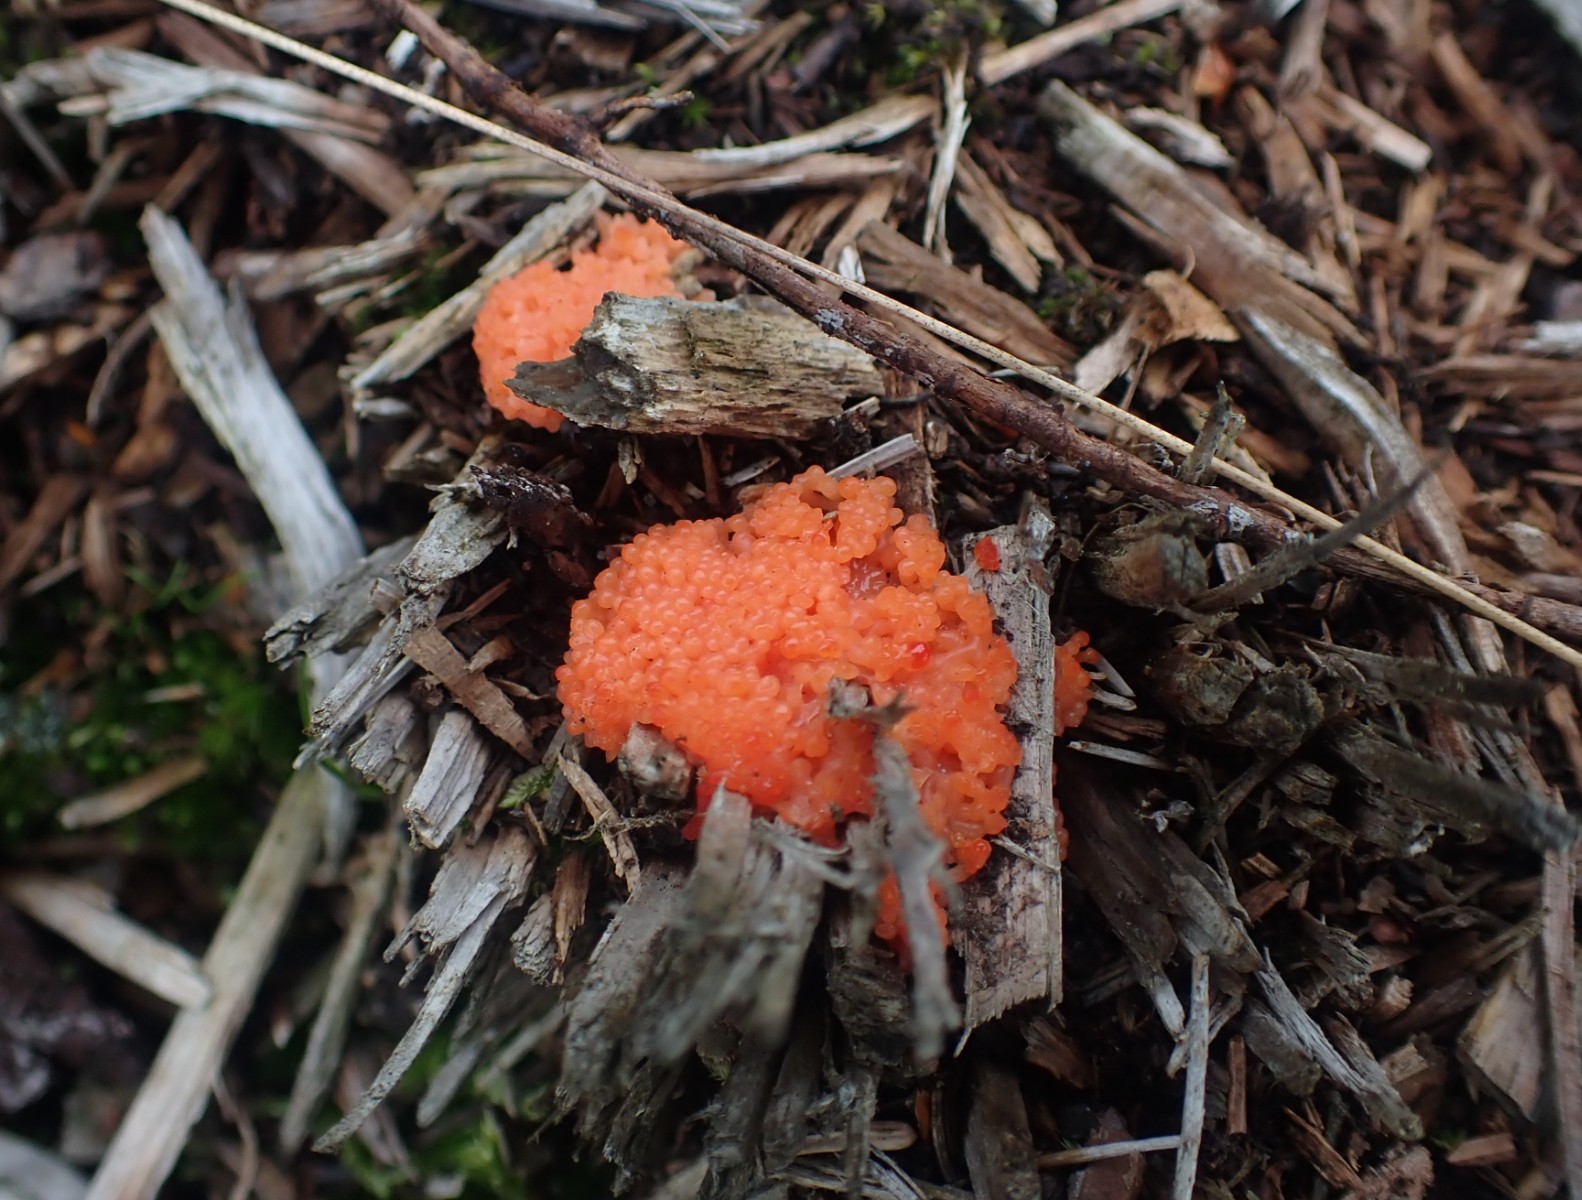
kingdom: Protozoa
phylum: Mycetozoa
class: Myxomycetes
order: Cribrariales
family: Tubiferaceae
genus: Tubifera
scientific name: Tubifera ferruginosa
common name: kanel-støvrør
